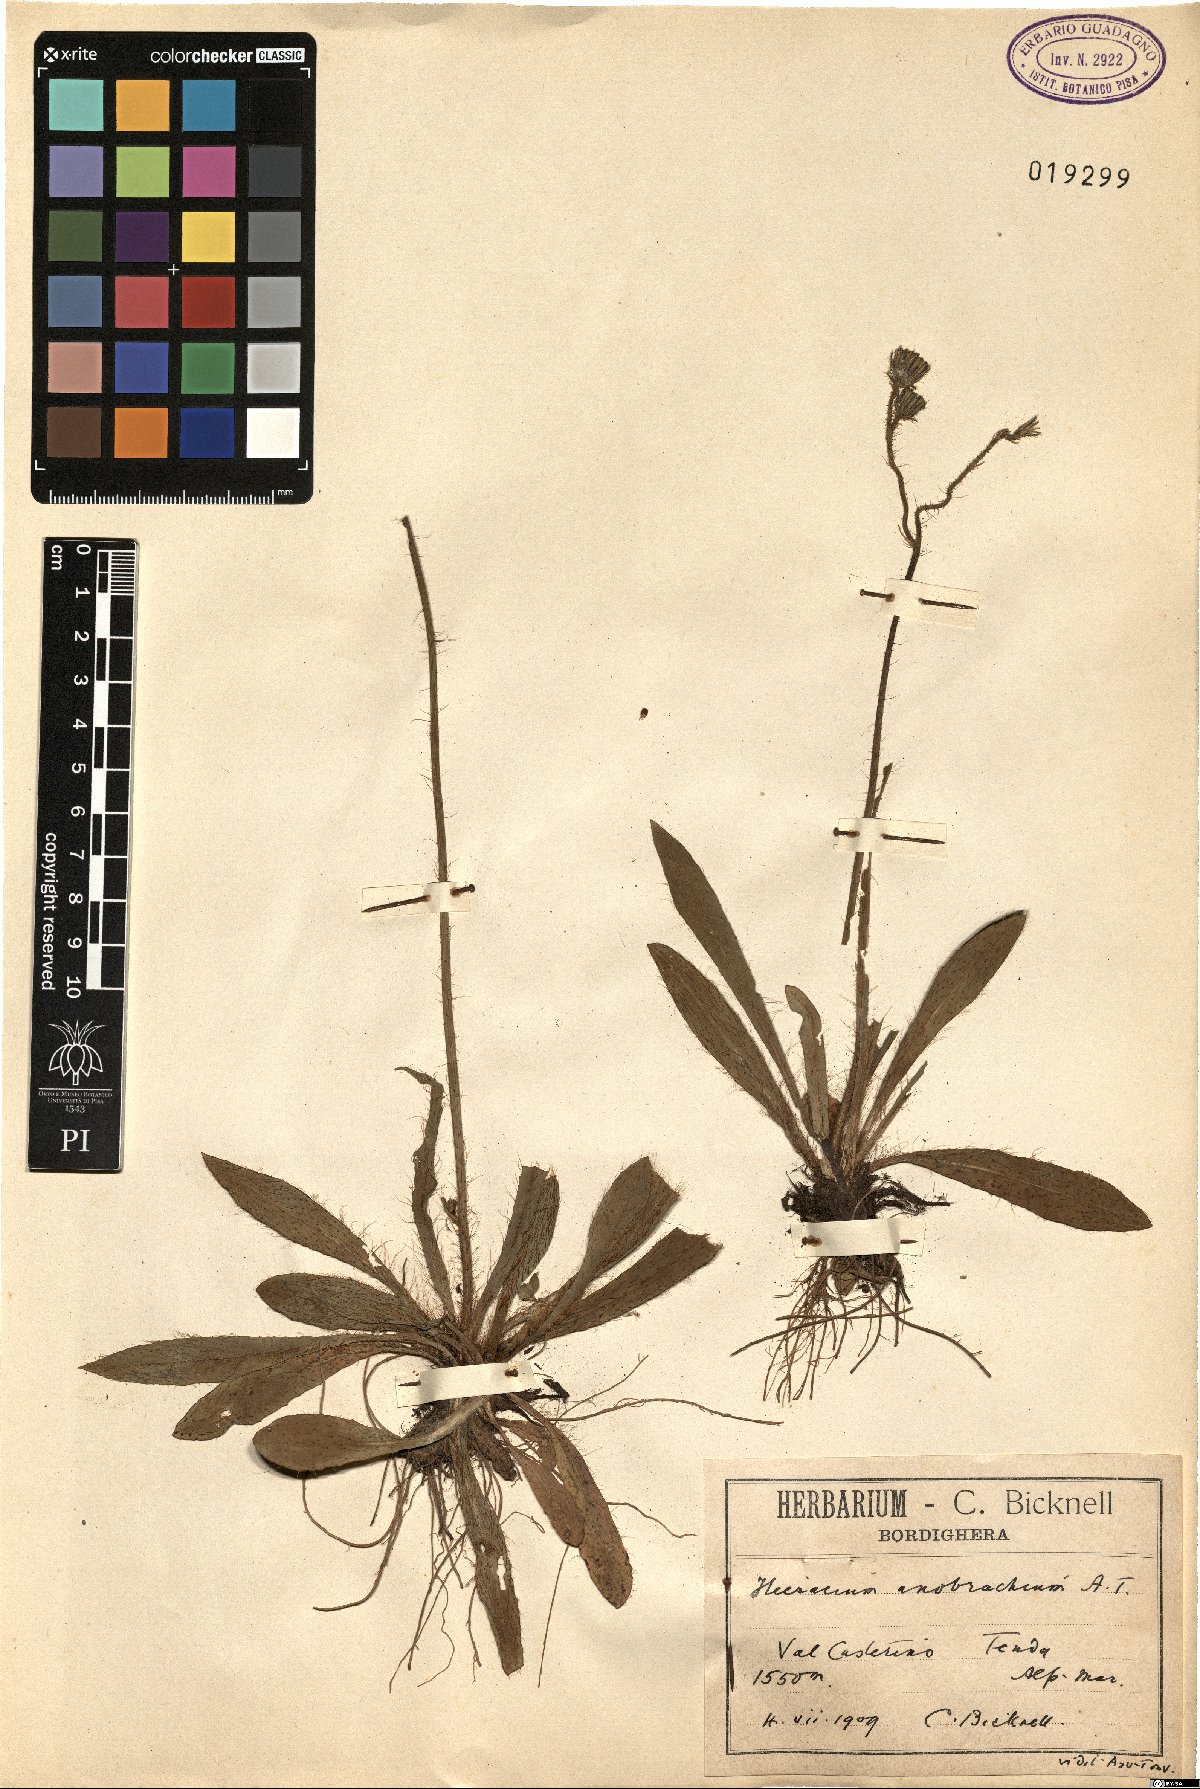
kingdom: Plantae
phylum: Tracheophyta
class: Magnoliopsida
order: Asterales
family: Asteraceae
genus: Pilosella
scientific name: Pilosella anobrachia
